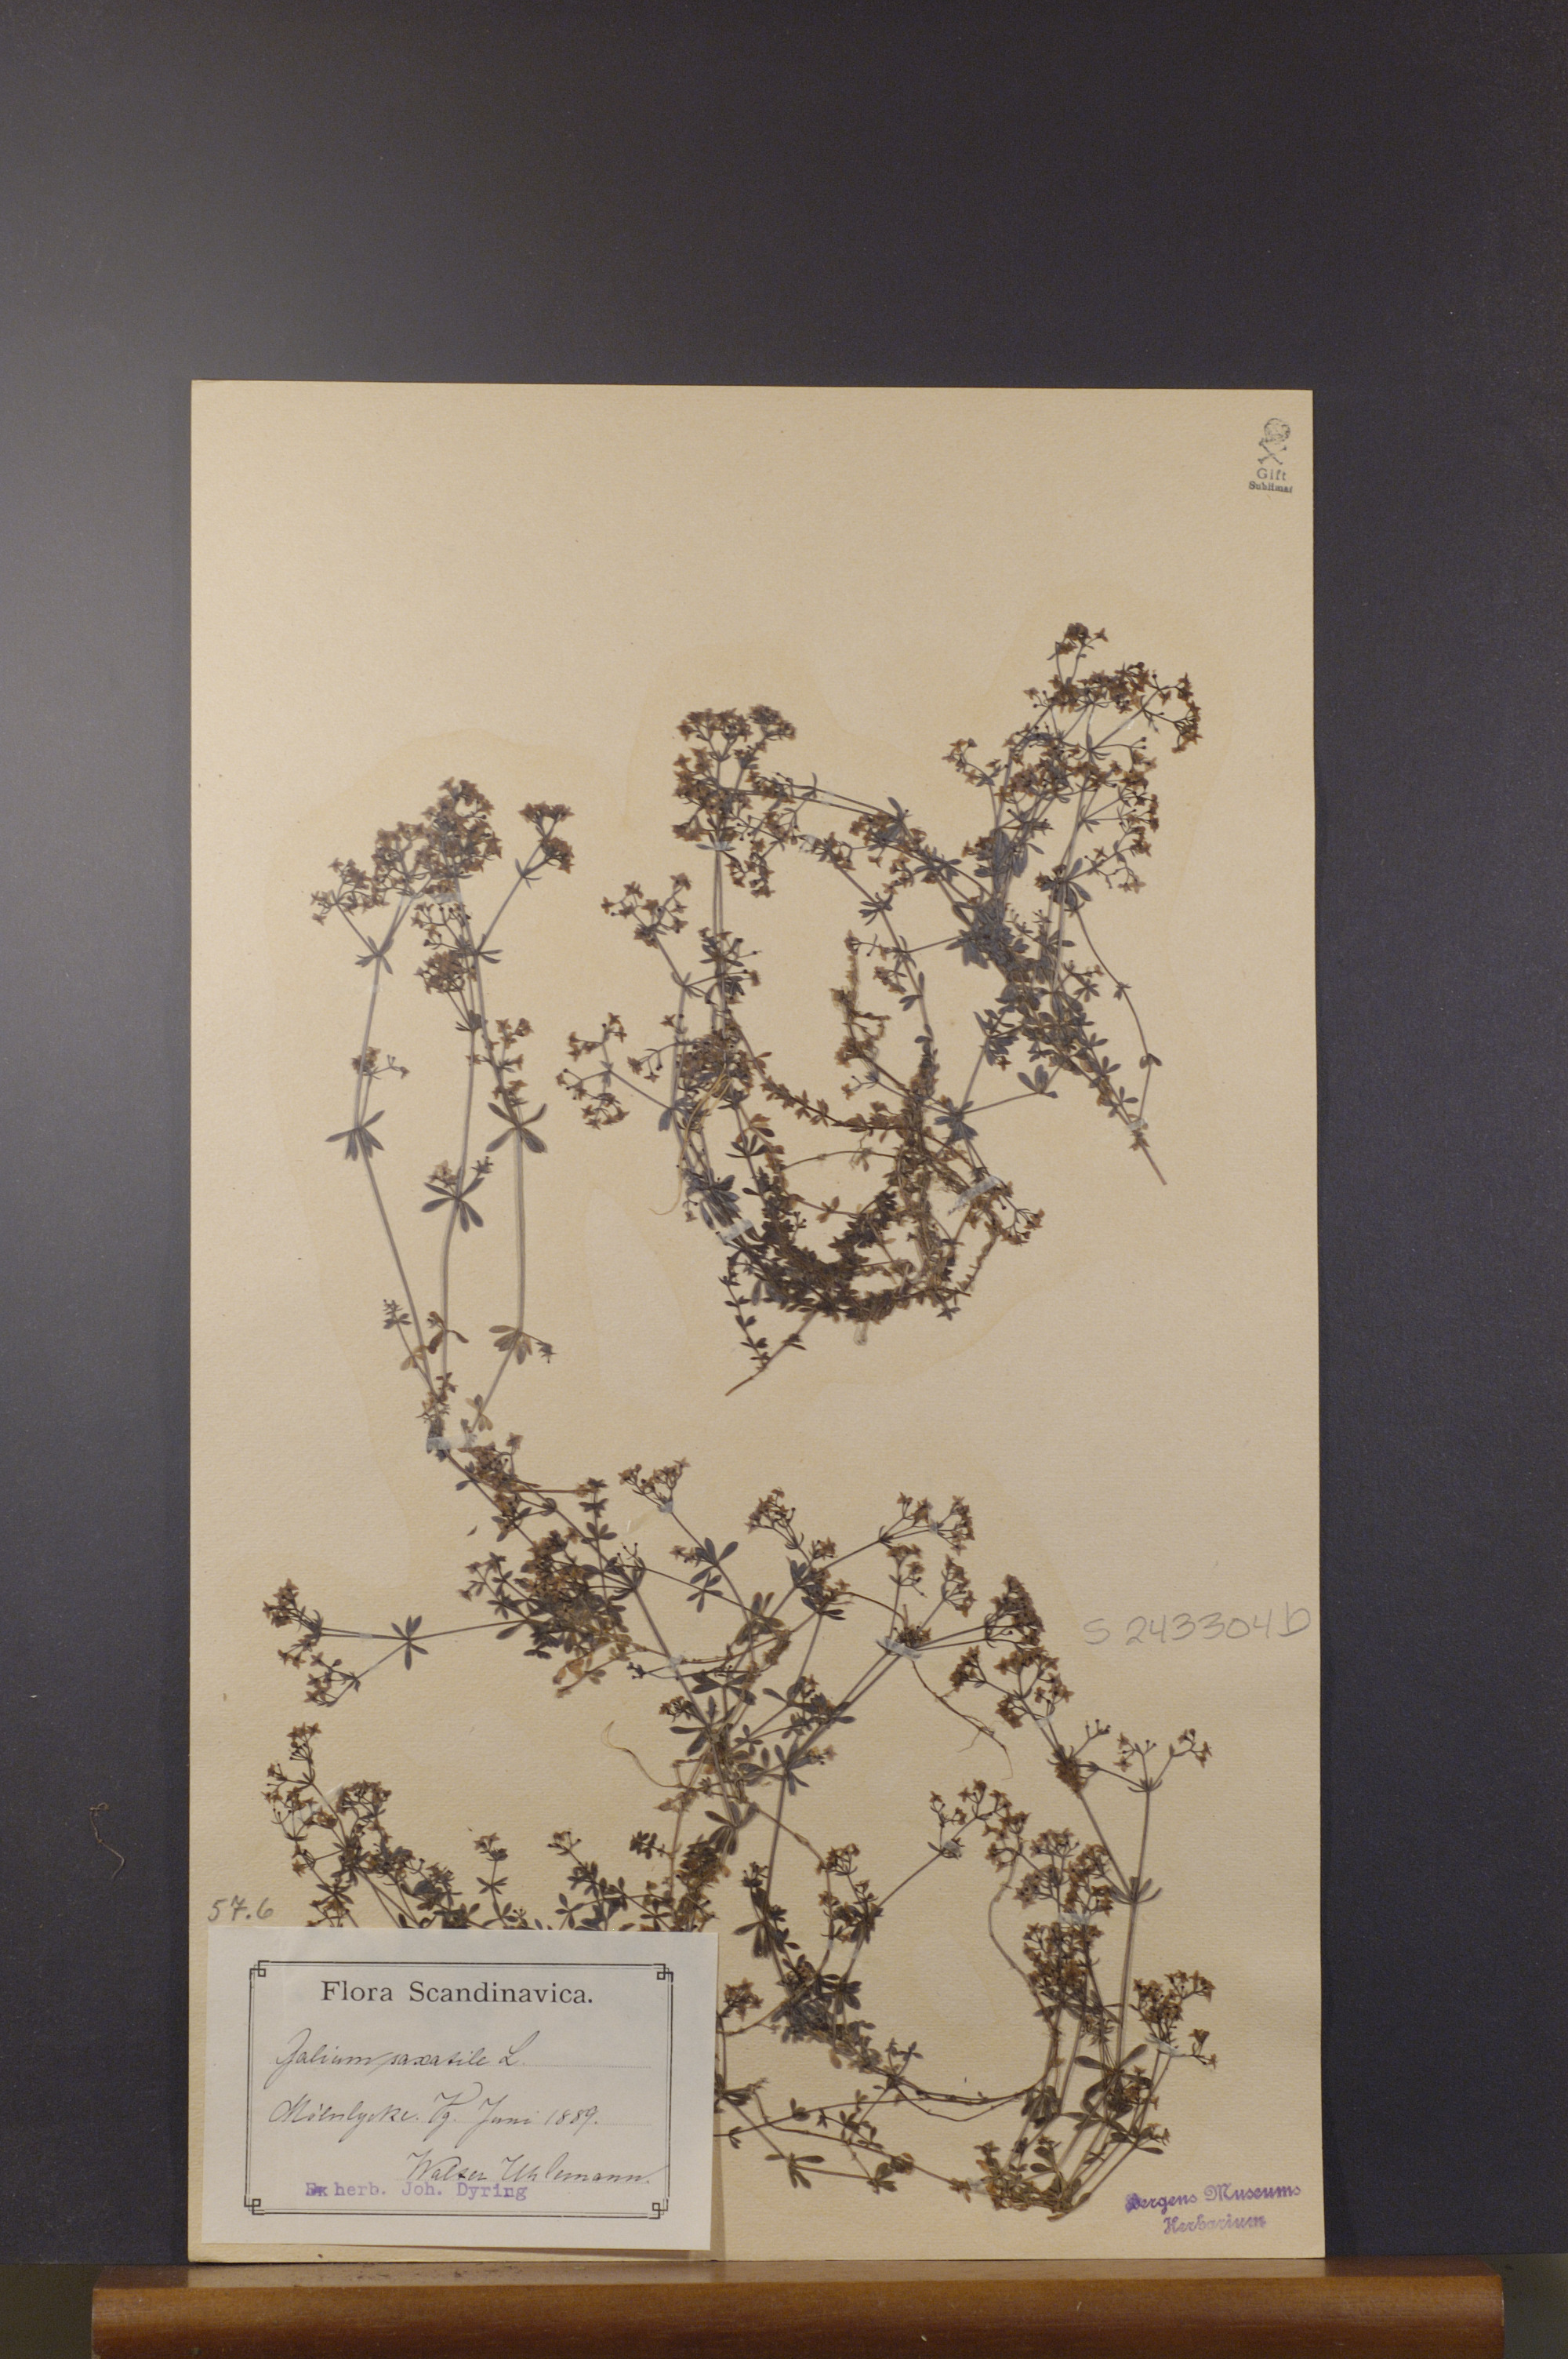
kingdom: Plantae
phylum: Tracheophyta
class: Magnoliopsida
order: Gentianales
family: Rubiaceae
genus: Galium
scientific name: Galium saxatile
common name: Heath bedstraw
